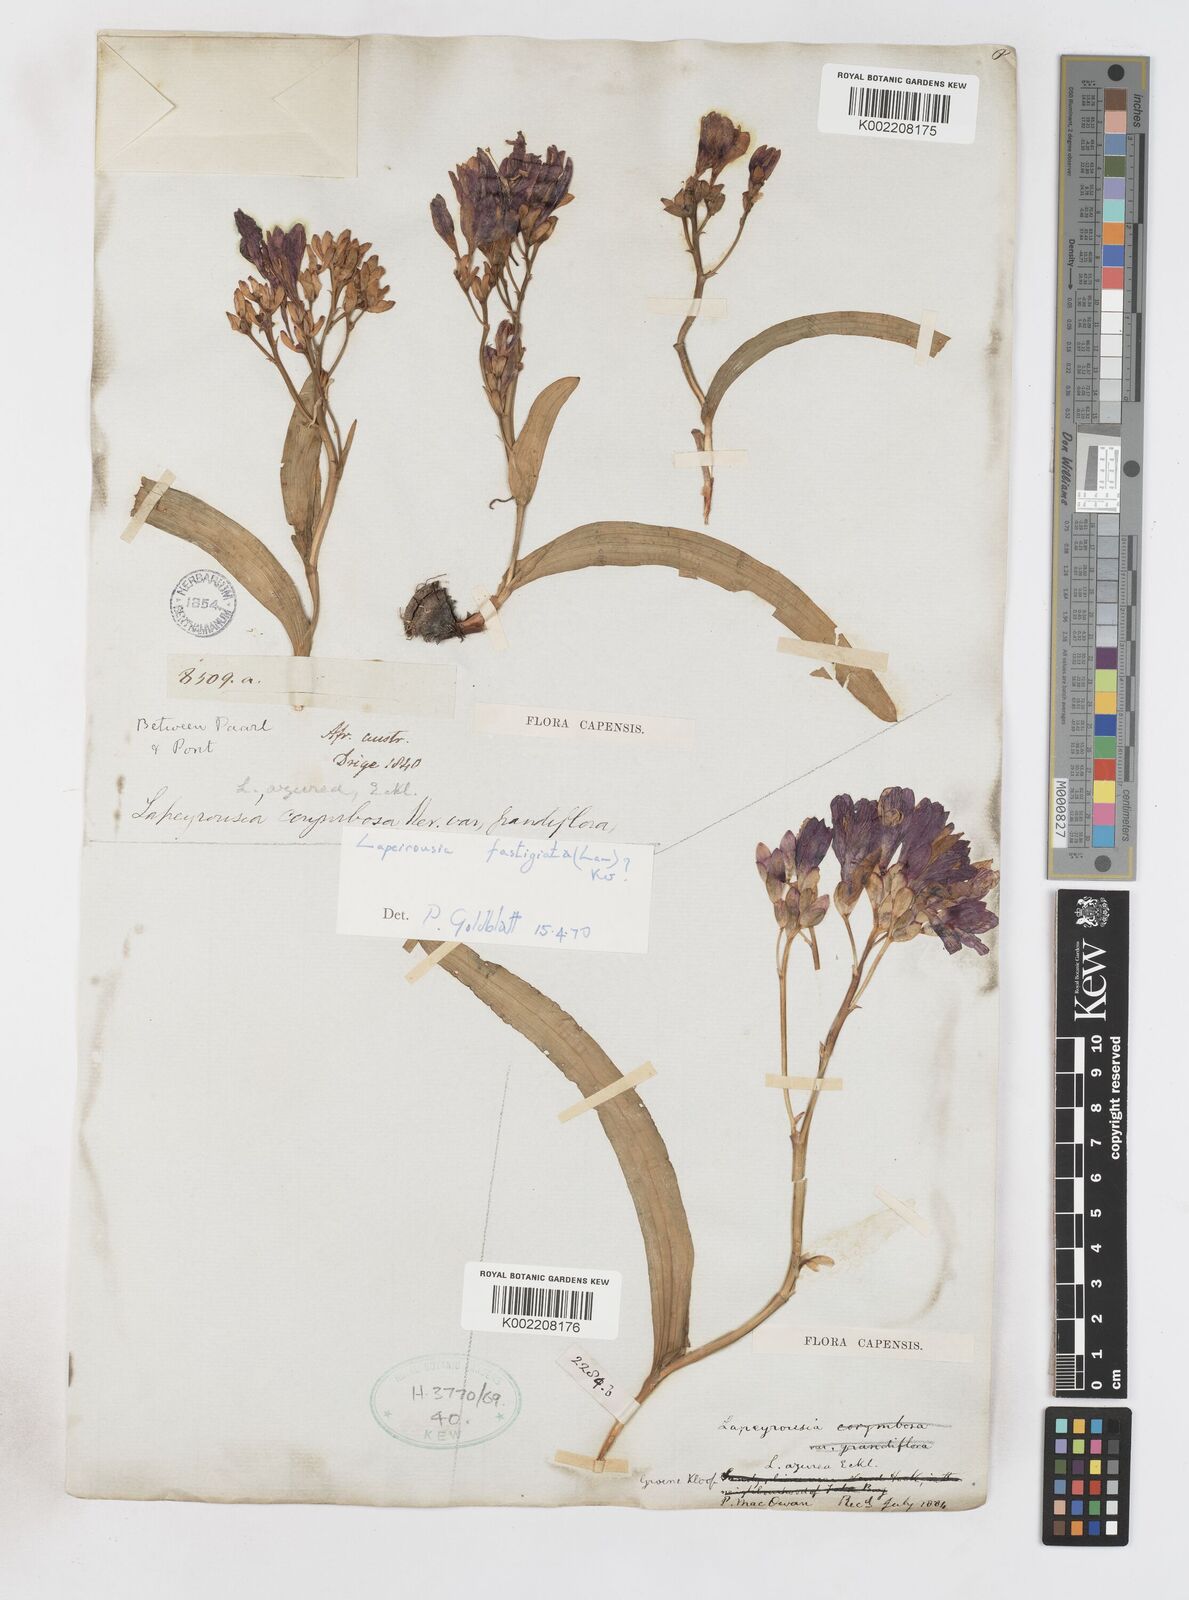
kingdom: Plantae
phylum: Tracheophyta
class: Liliopsida
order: Asparagales
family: Iridaceae
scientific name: Iridaceae
